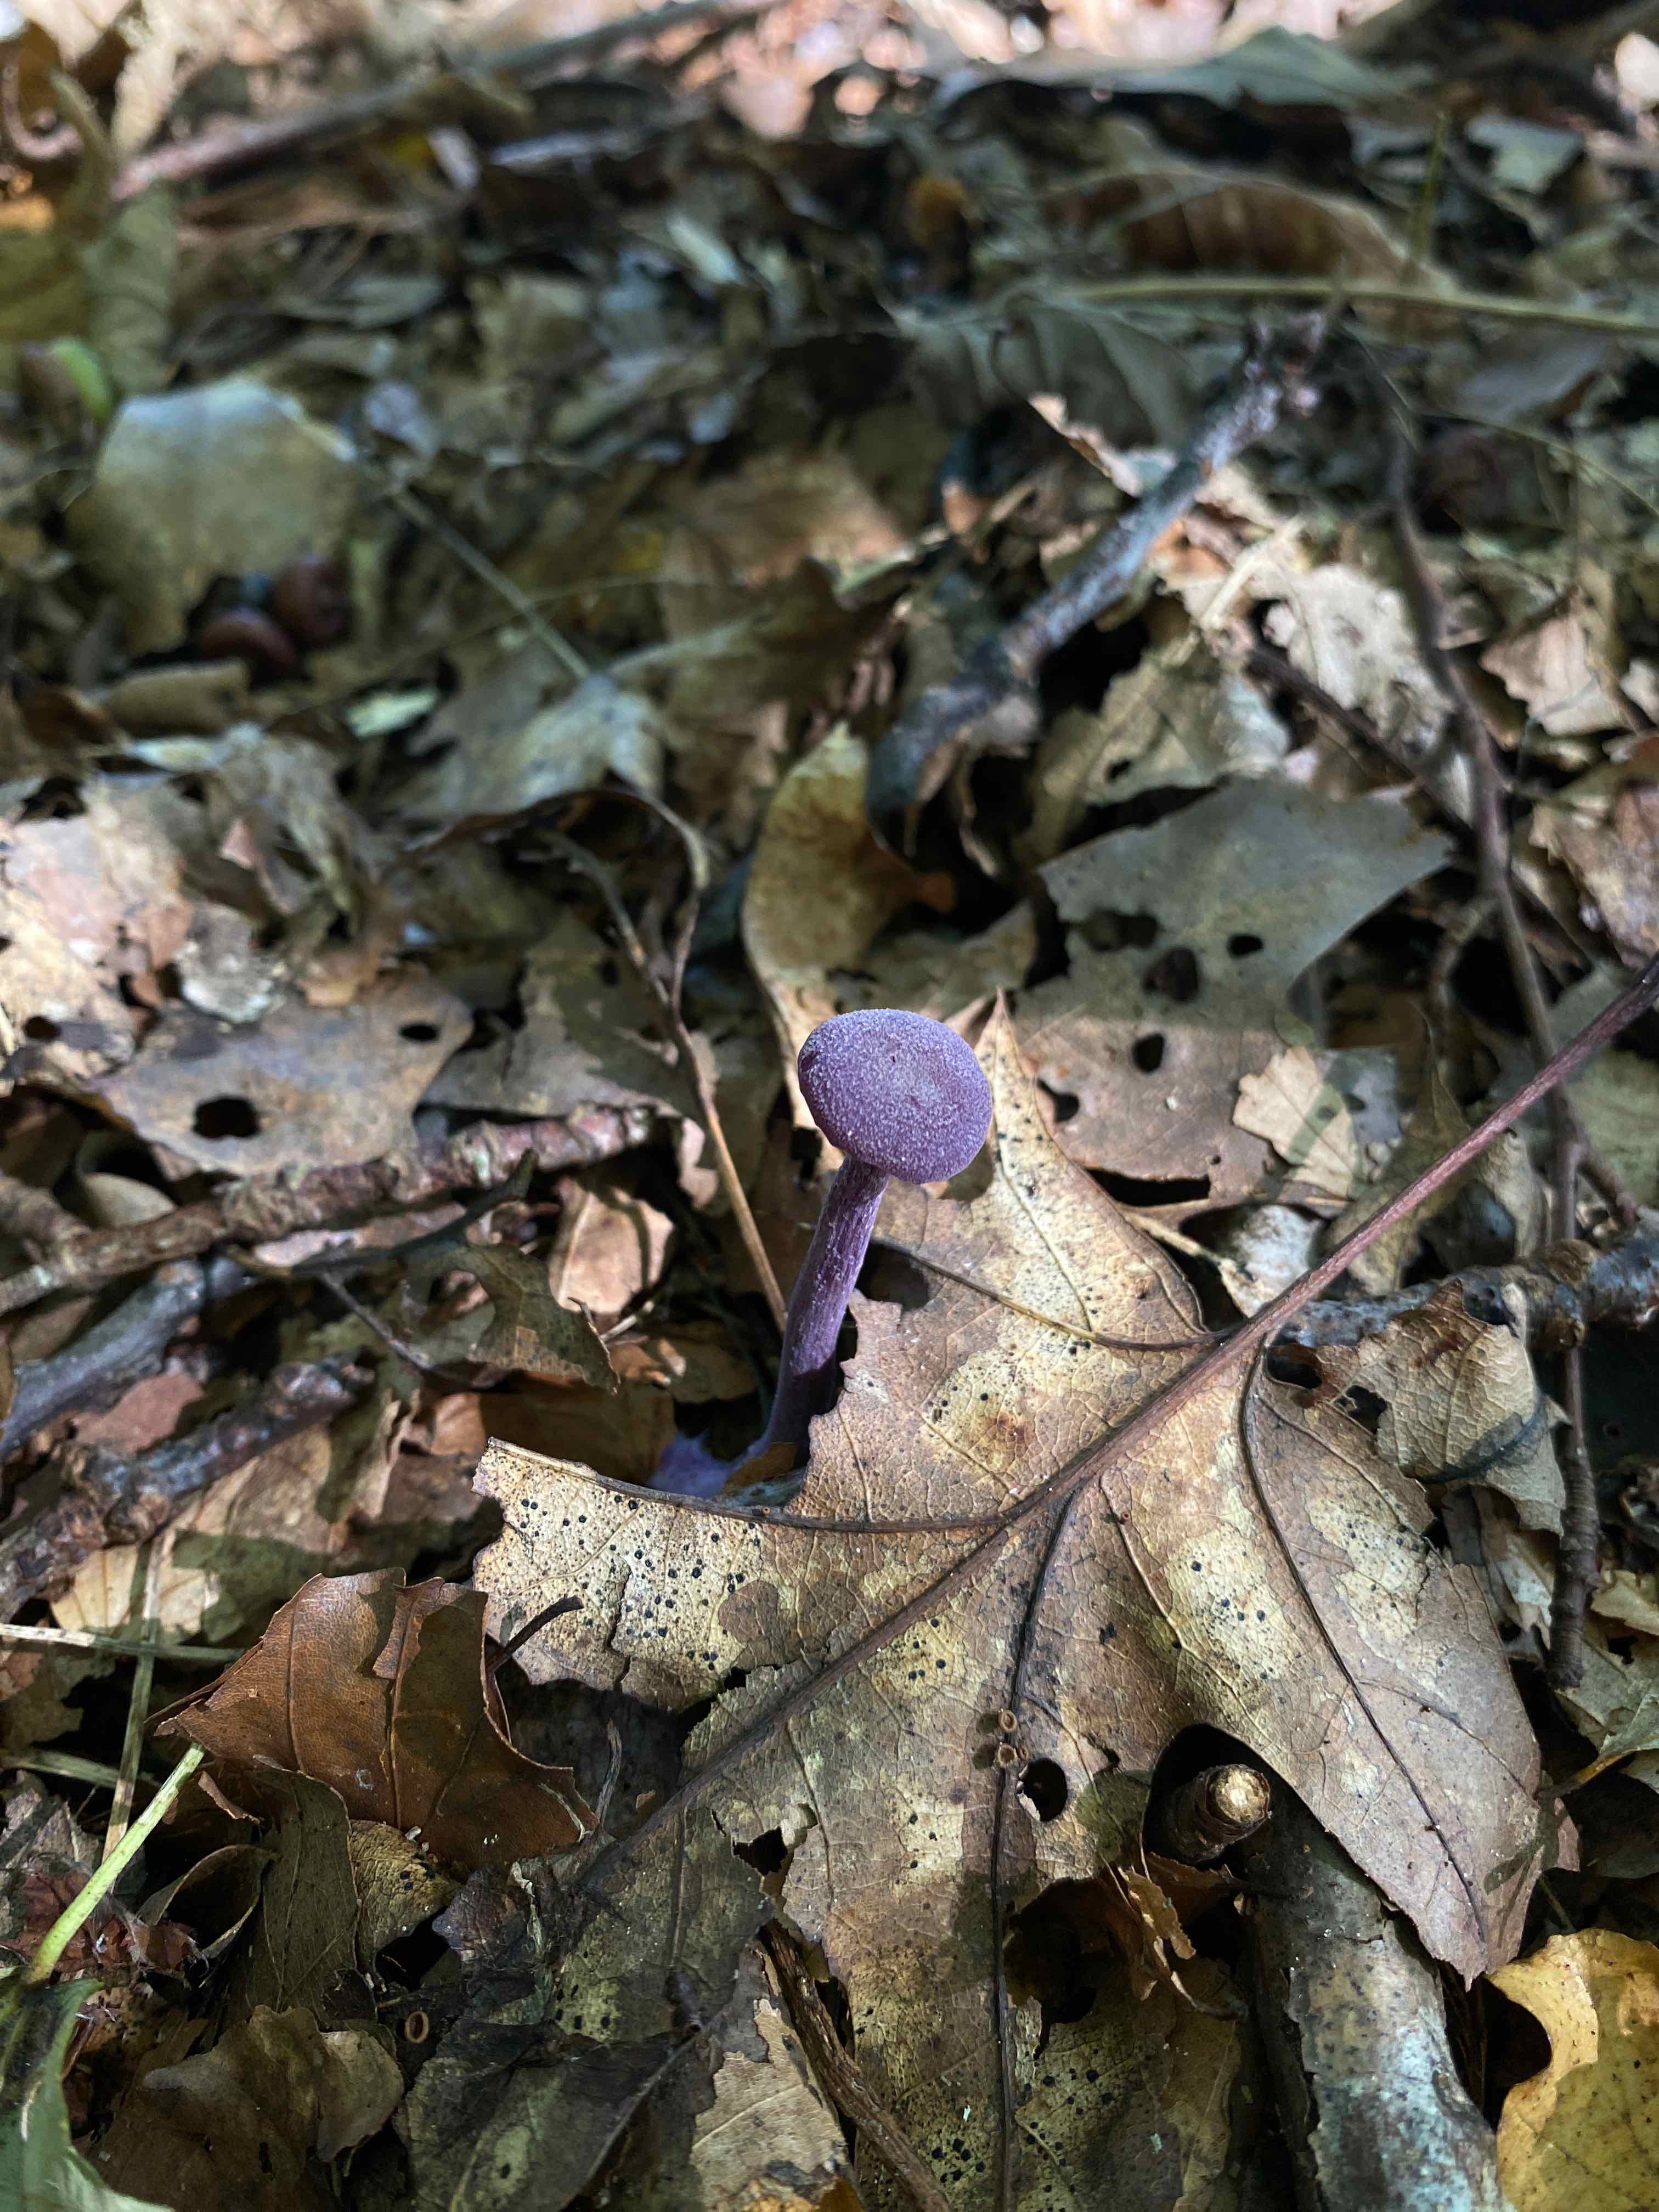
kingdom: Fungi
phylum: Basidiomycota
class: Agaricomycetes
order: Agaricales
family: Hydnangiaceae
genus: Laccaria
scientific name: Laccaria amethystina
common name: violet ametysthat
